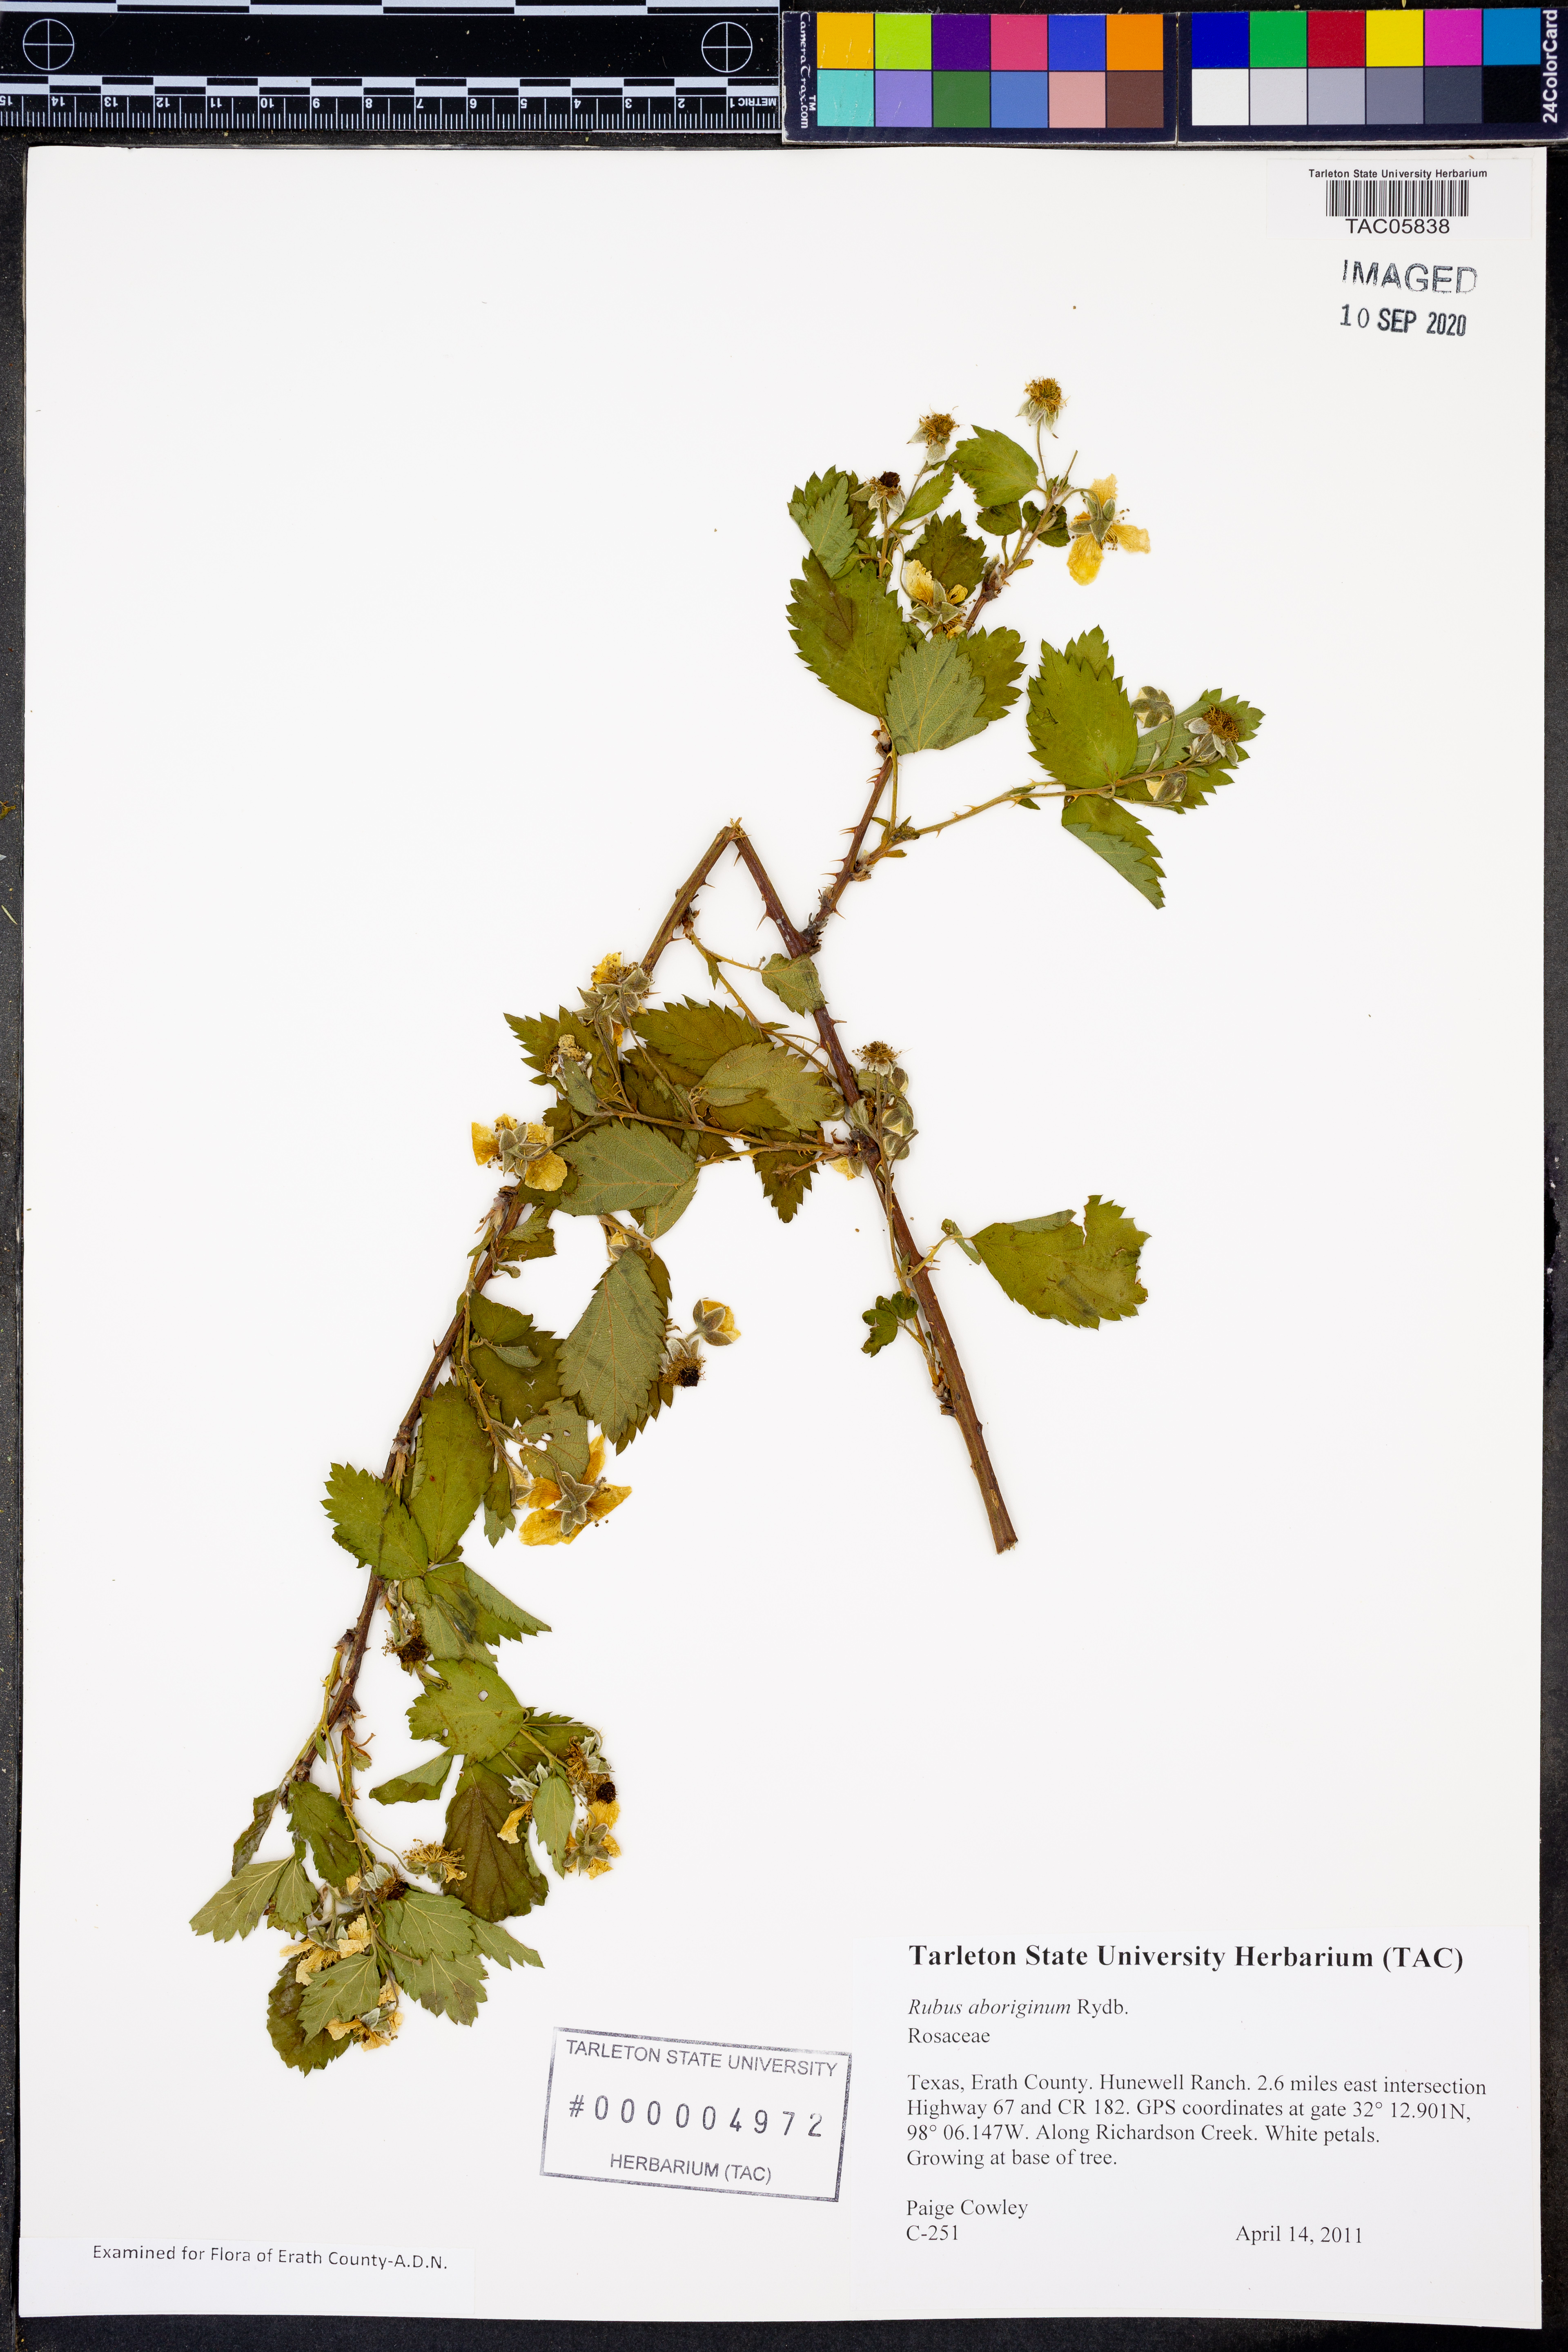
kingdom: Plantae
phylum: Tracheophyta
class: Magnoliopsida
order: Rosales
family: Rosaceae
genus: Rubus
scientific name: Rubus aboriginum
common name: Mayes dewberry
